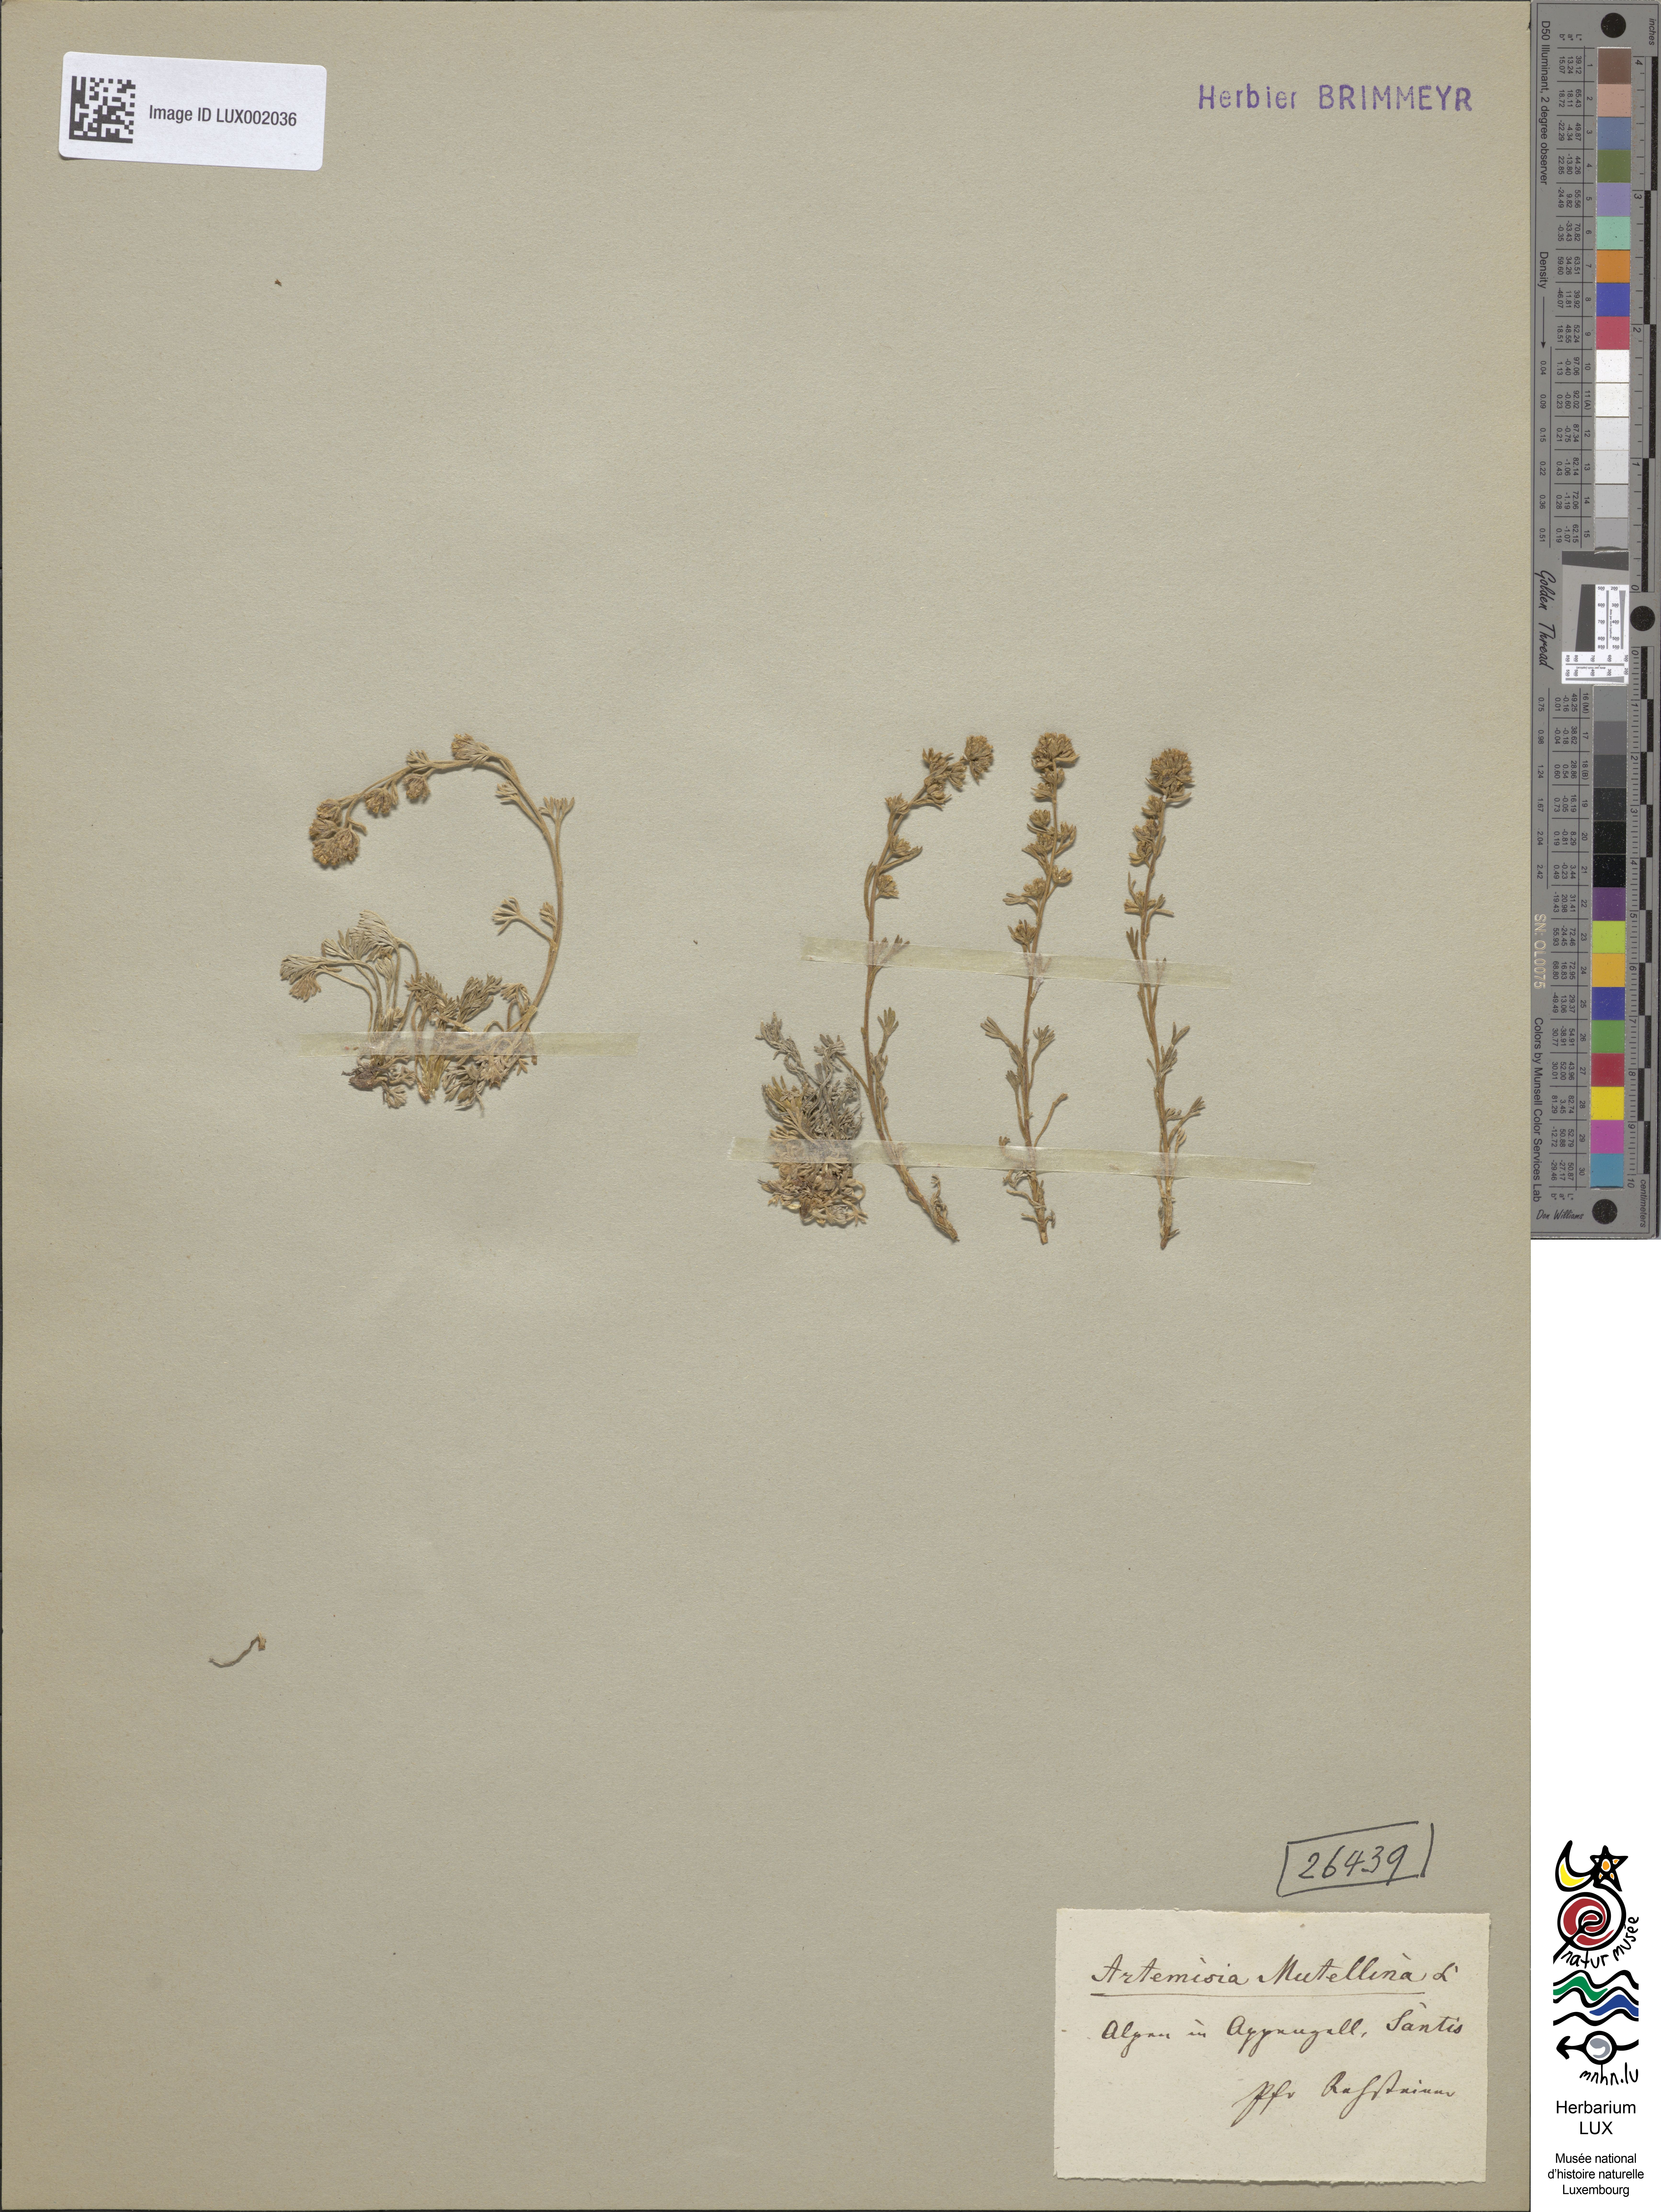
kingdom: Plantae
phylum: Tracheophyta
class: Magnoliopsida
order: Asterales
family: Asteraceae
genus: Artemisia
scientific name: Artemisia mutellina
